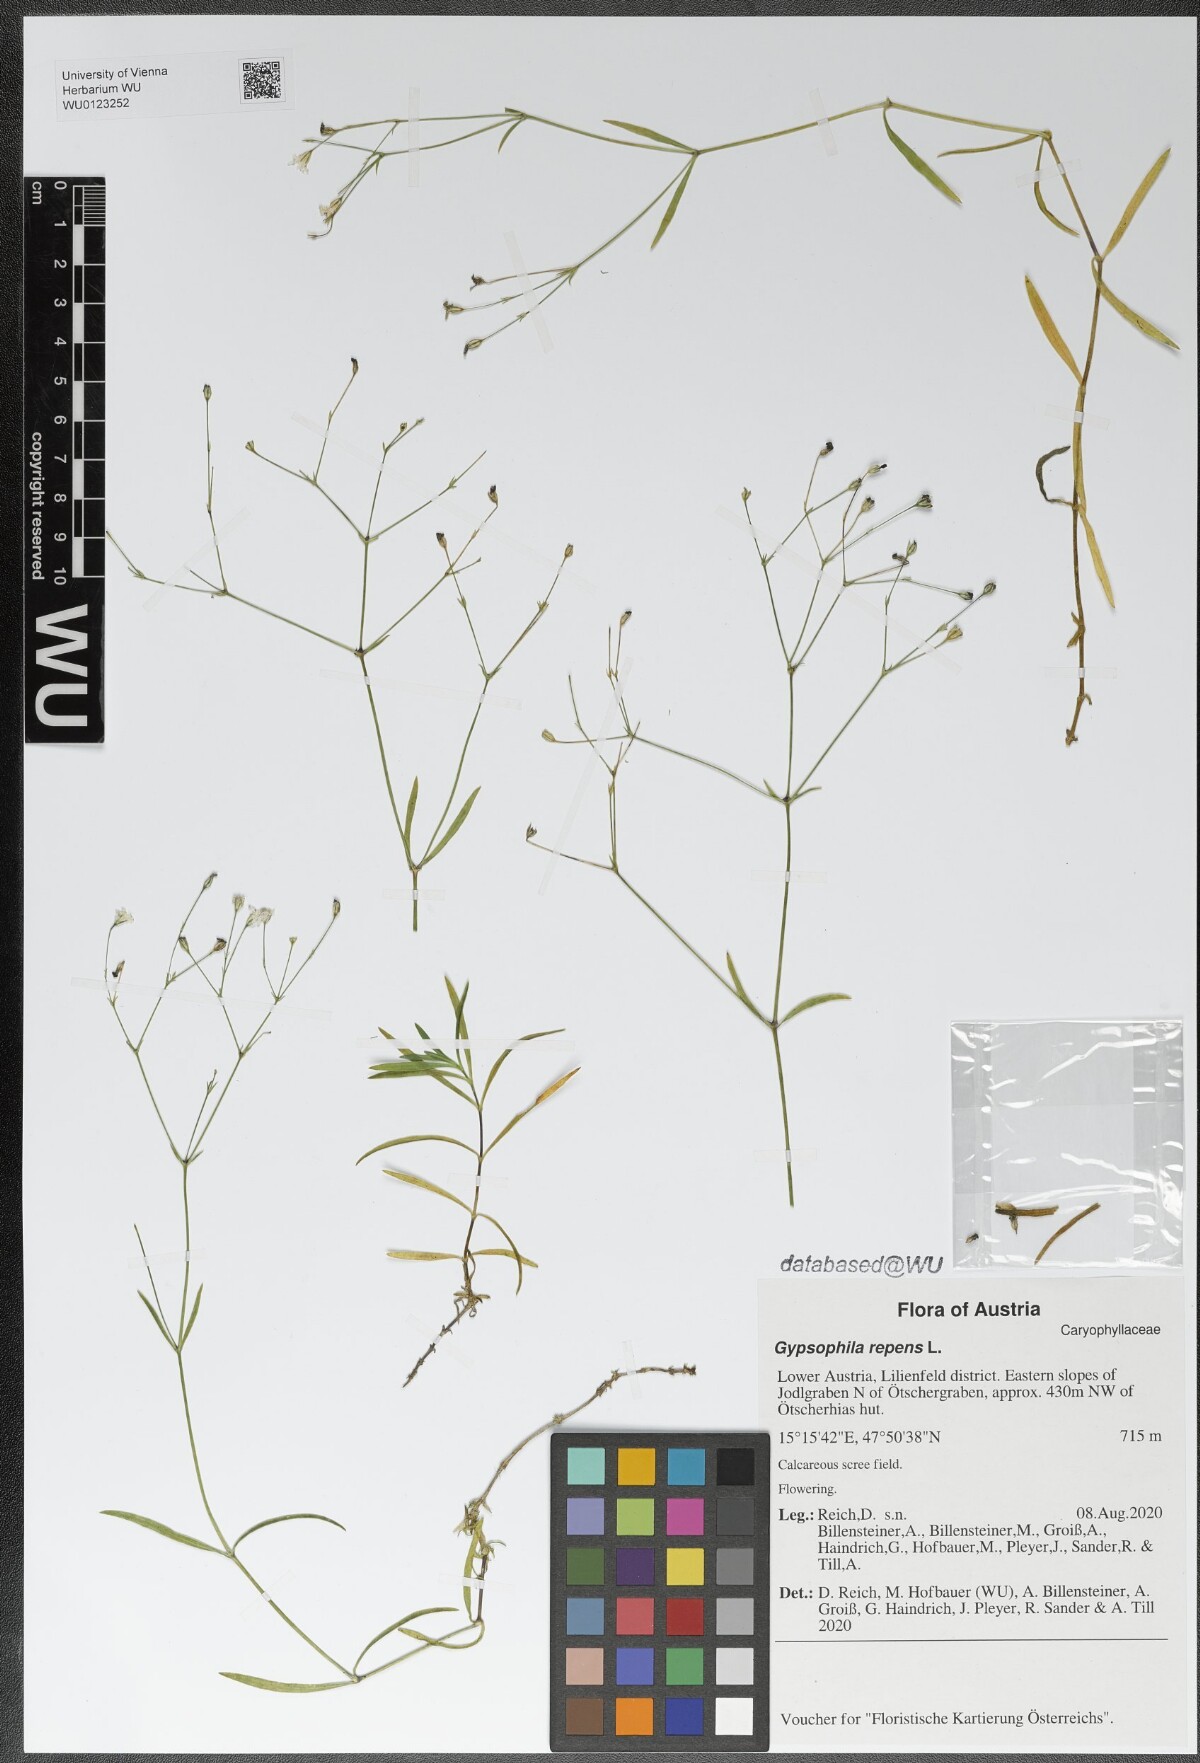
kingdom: Plantae
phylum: Tracheophyta
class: Magnoliopsida
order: Caryophyllales
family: Caryophyllaceae
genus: Gypsophila
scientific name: Gypsophila repens
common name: Creeping baby's-breath
